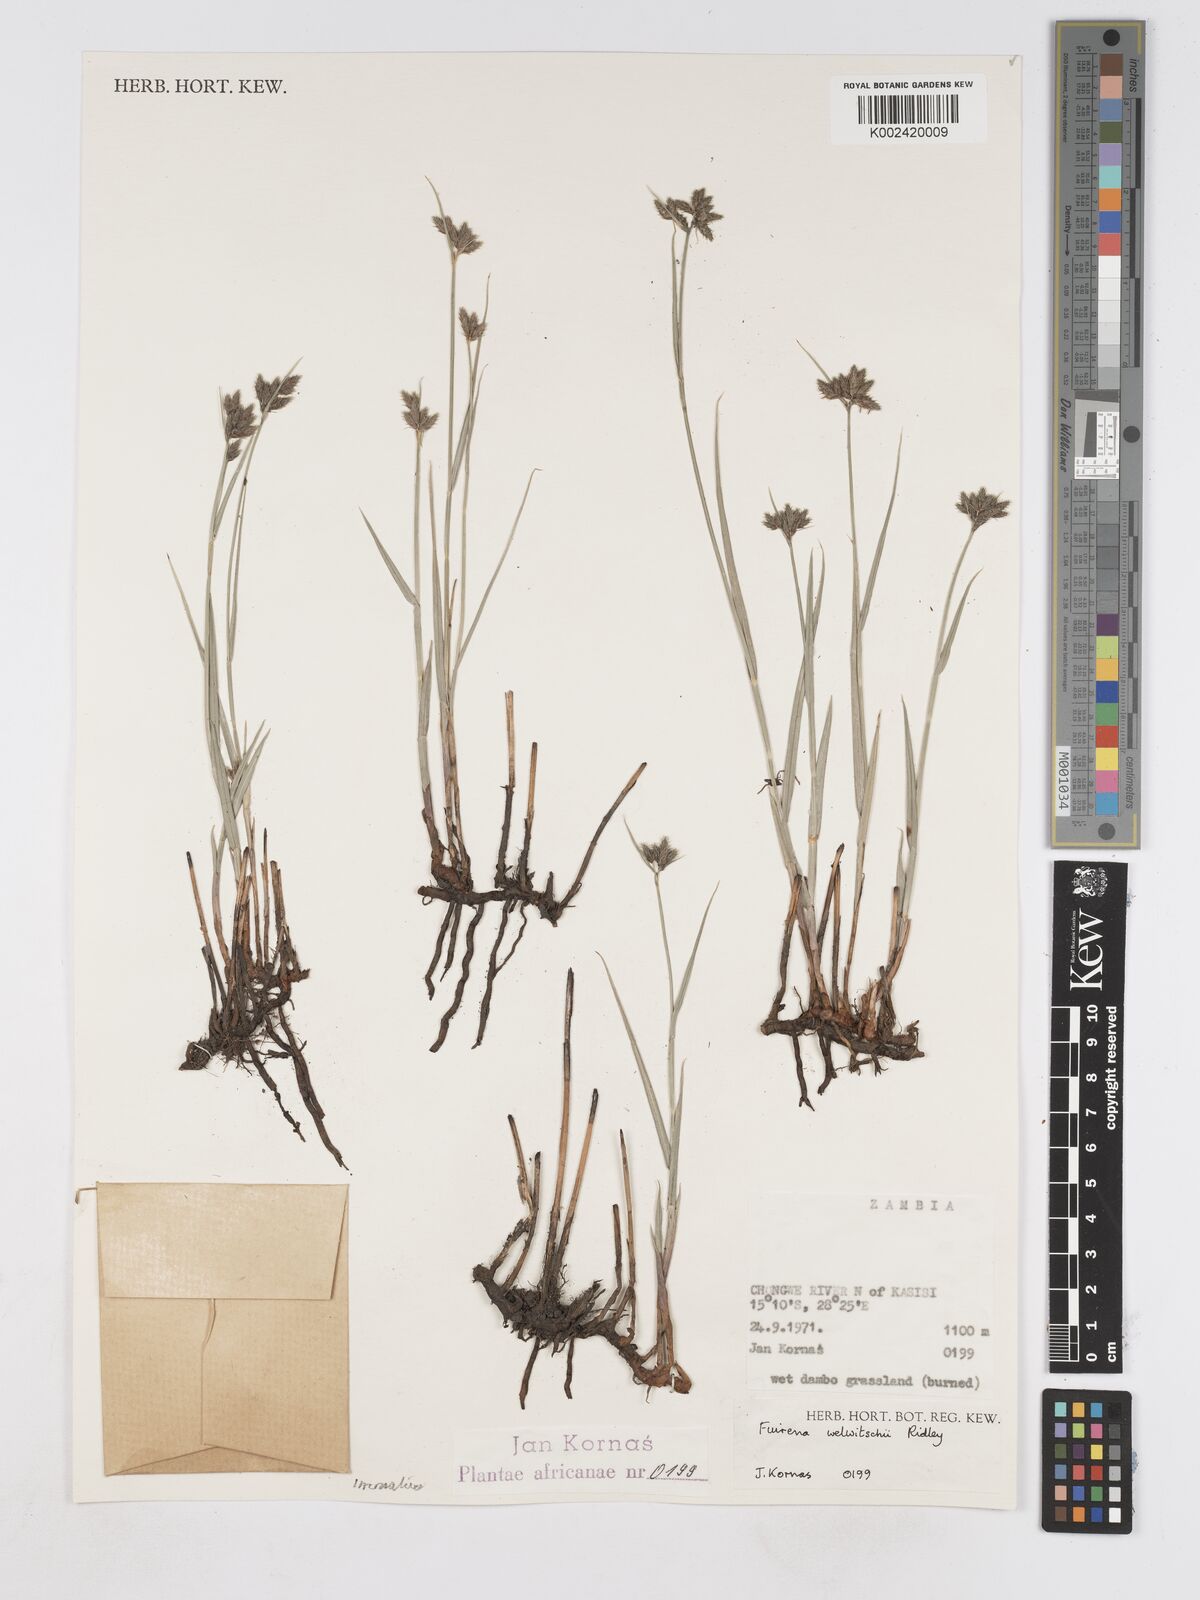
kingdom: Plantae
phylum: Tracheophyta
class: Liliopsida
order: Poales
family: Cyperaceae
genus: Fuirena
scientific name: Fuirena coerulescens
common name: Blue umbrella-sedge
